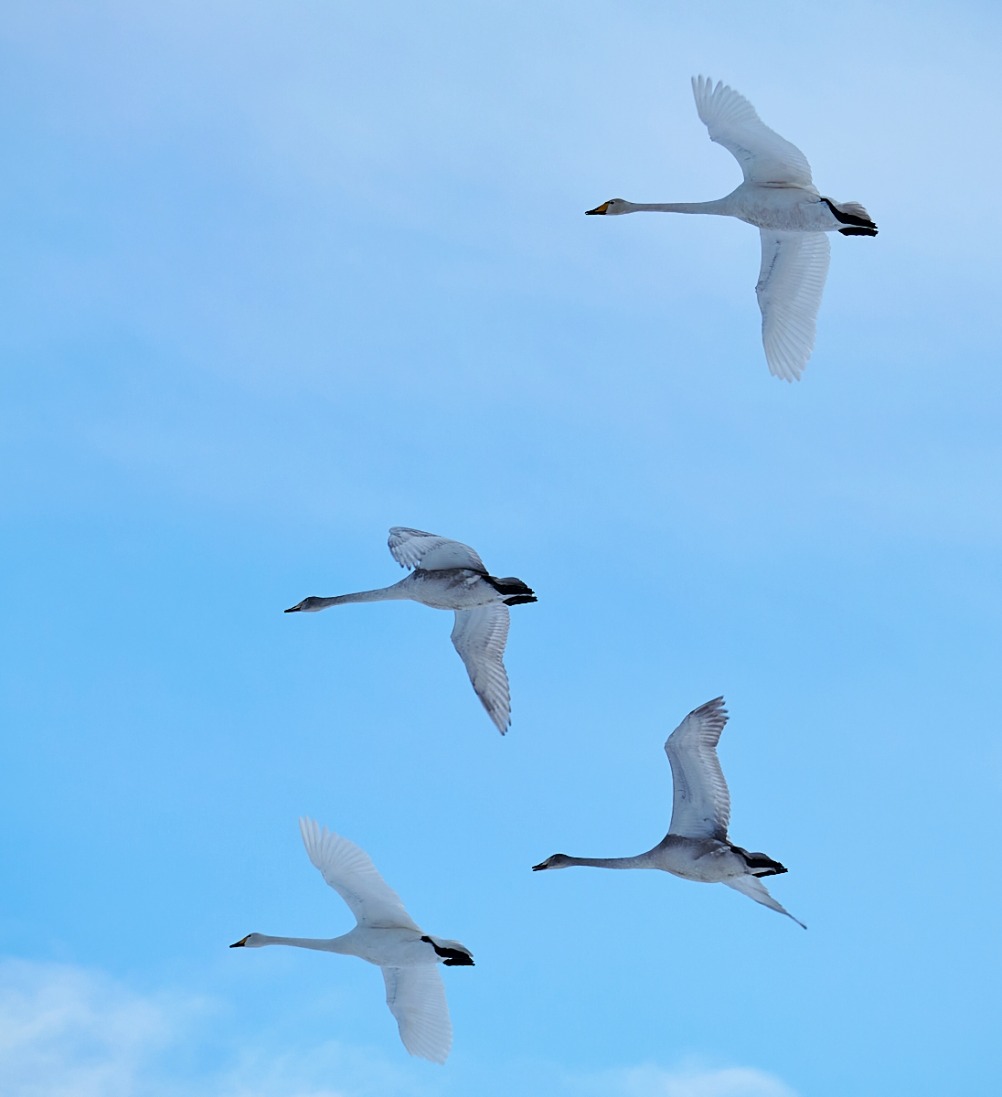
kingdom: Animalia
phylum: Chordata
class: Aves
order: Anseriformes
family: Anatidae
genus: Cygnus
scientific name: Cygnus cygnus
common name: Sangsvane
